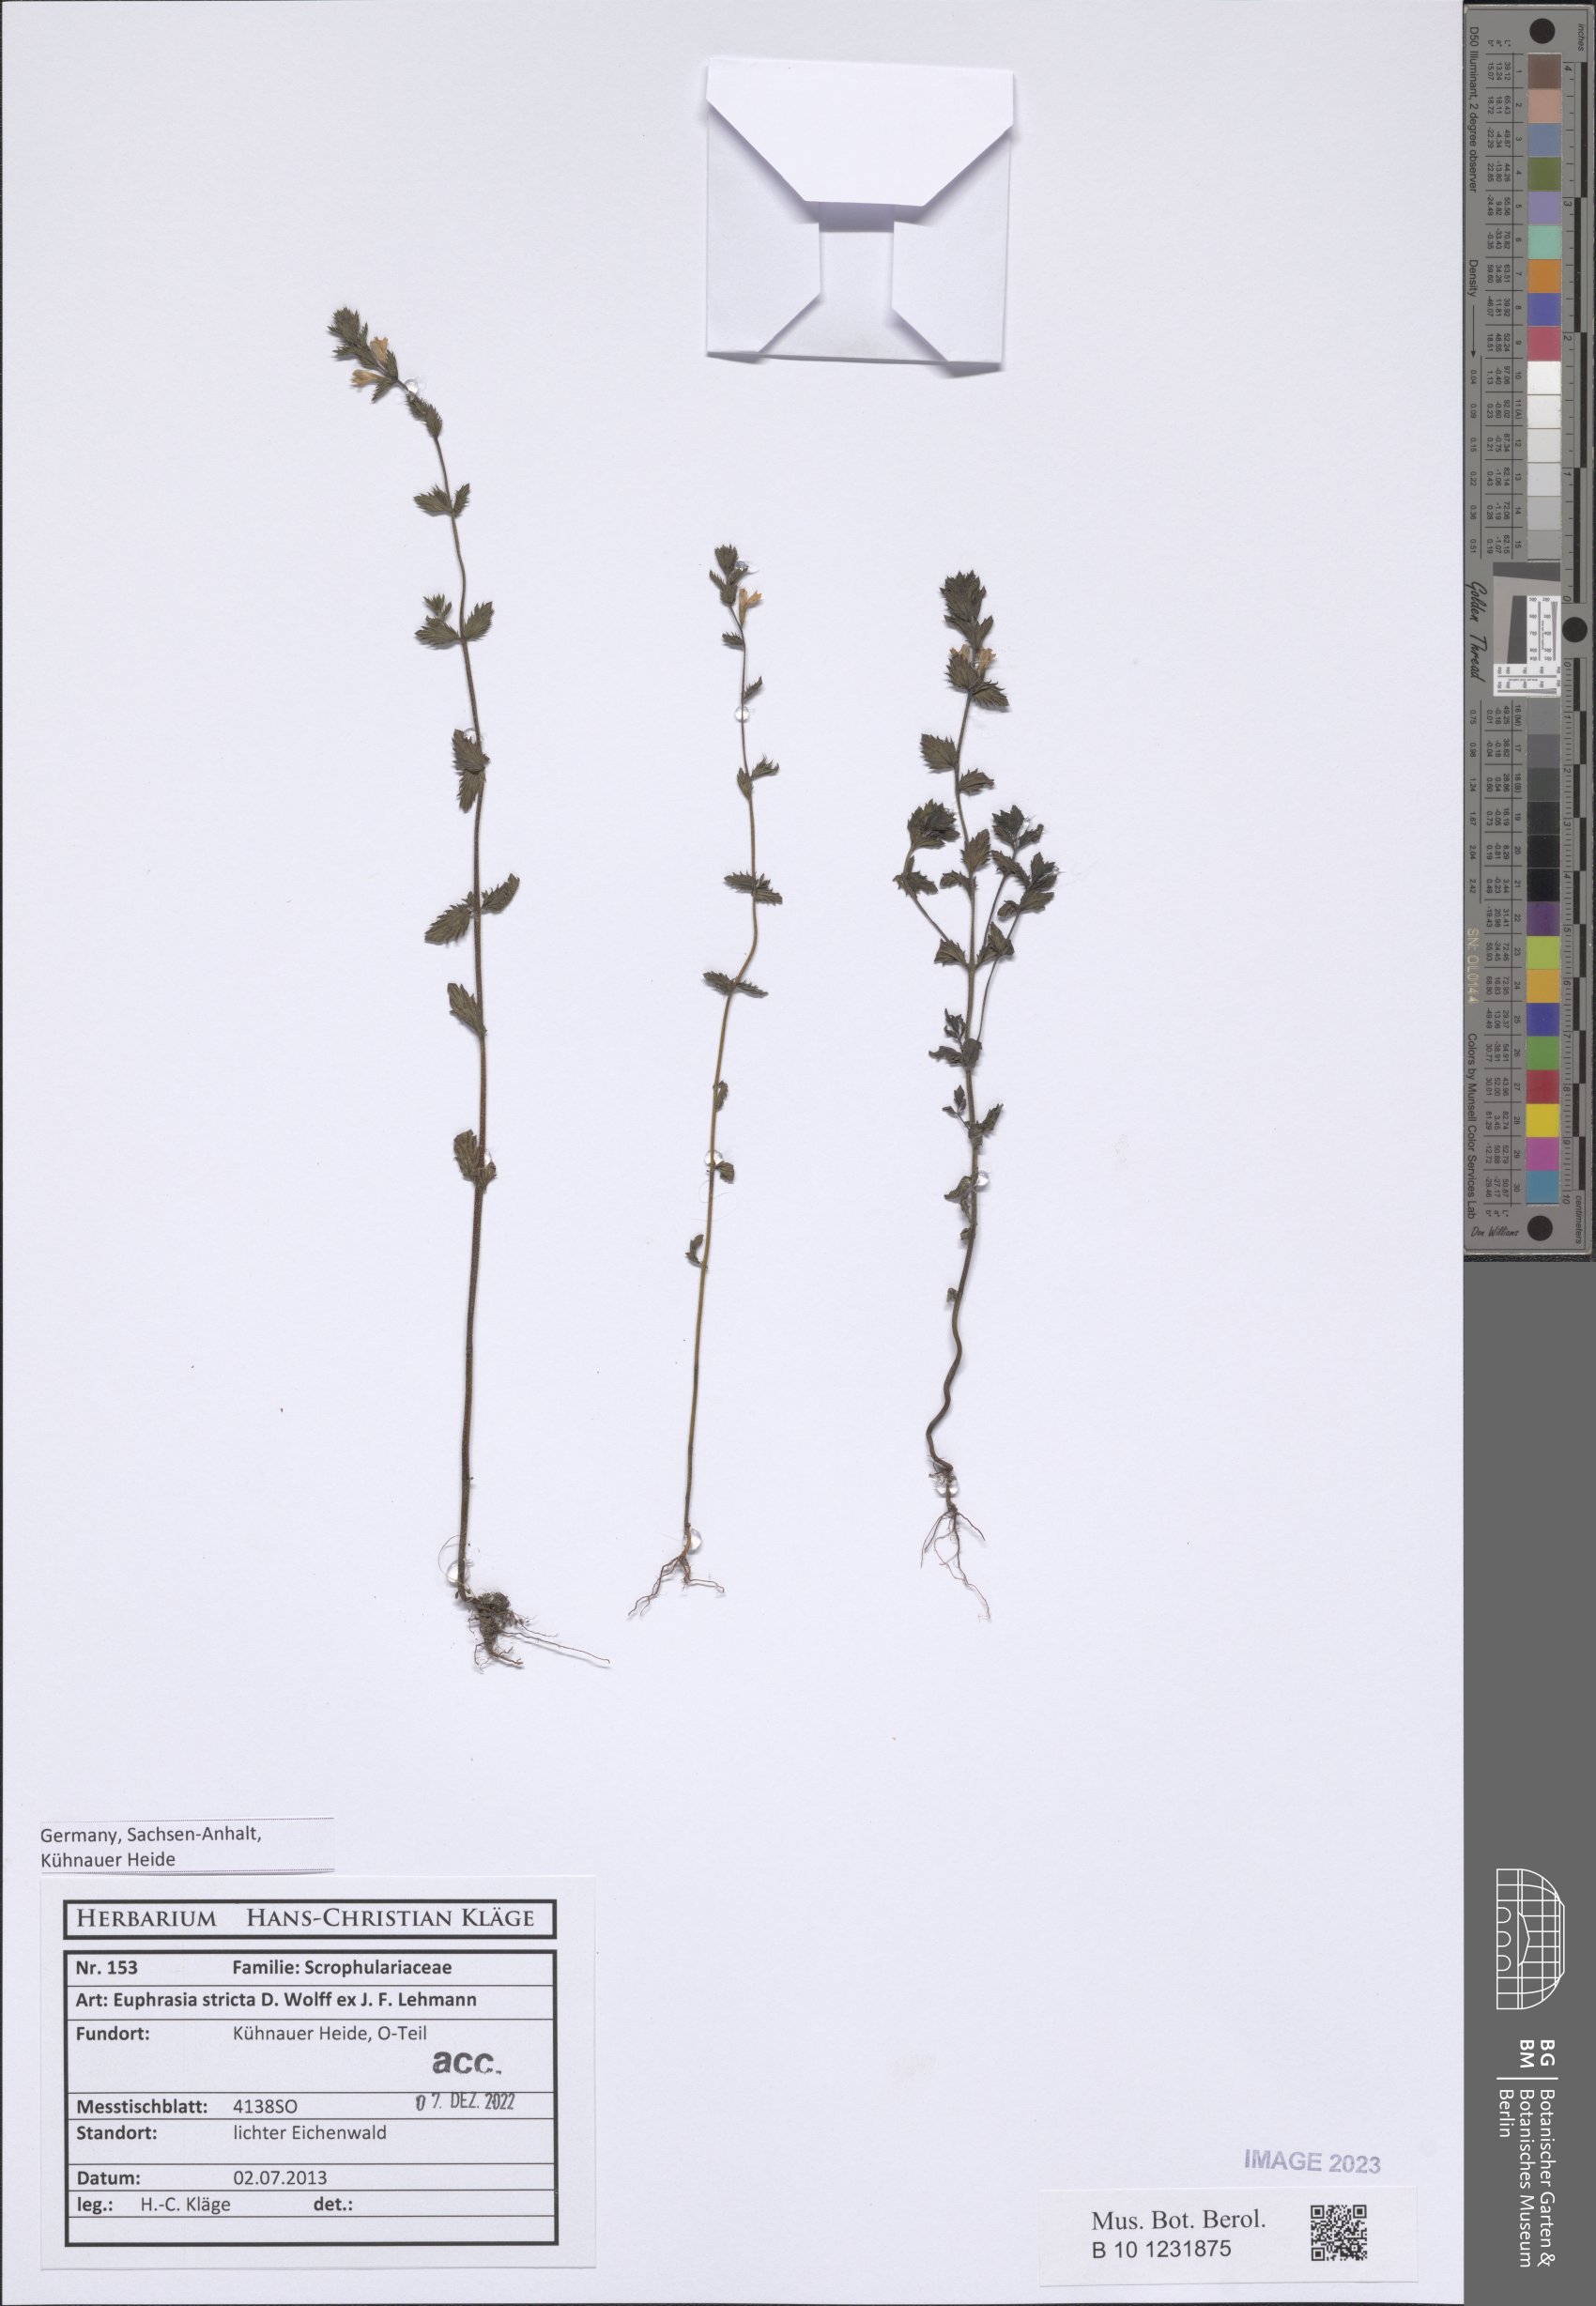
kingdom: Plantae
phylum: Tracheophyta
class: Magnoliopsida
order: Lamiales
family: Orobanchaceae
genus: Euphrasia
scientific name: Euphrasia stricta
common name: Drug eyebright
